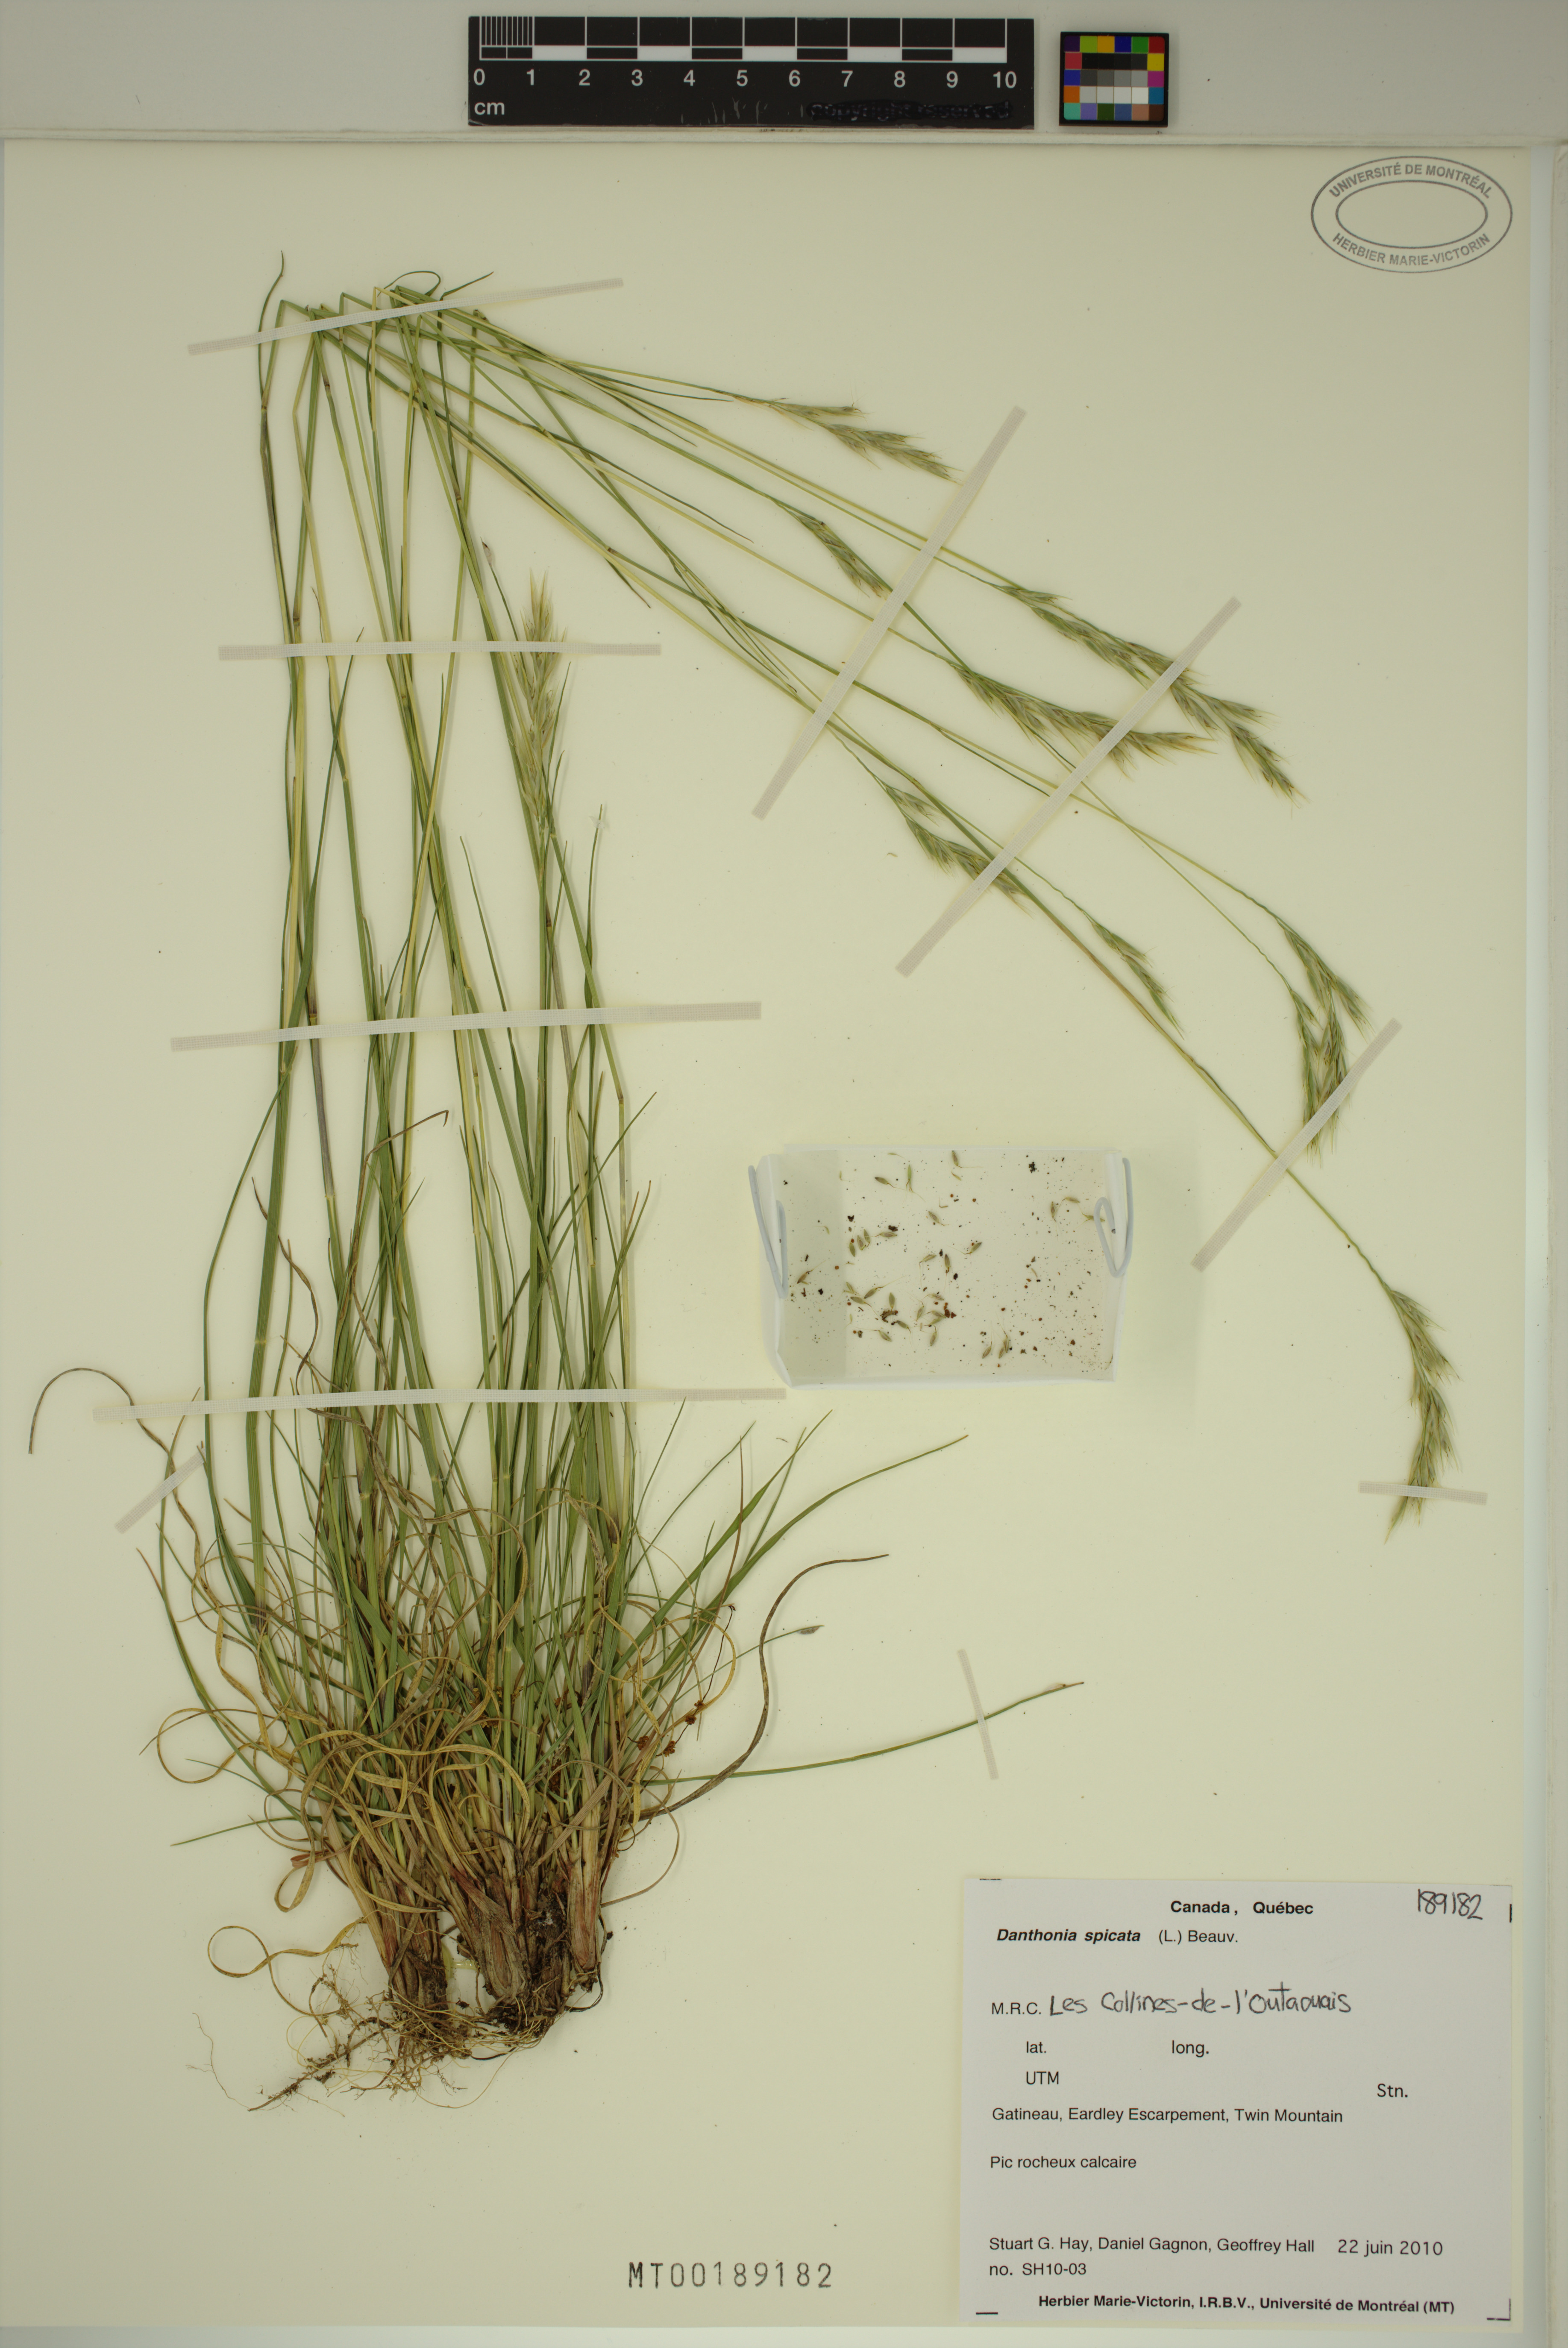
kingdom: Plantae
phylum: Tracheophyta
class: Liliopsida
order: Poales
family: Poaceae
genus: Danthonia
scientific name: Danthonia spicata
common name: Common wild oatgrass
